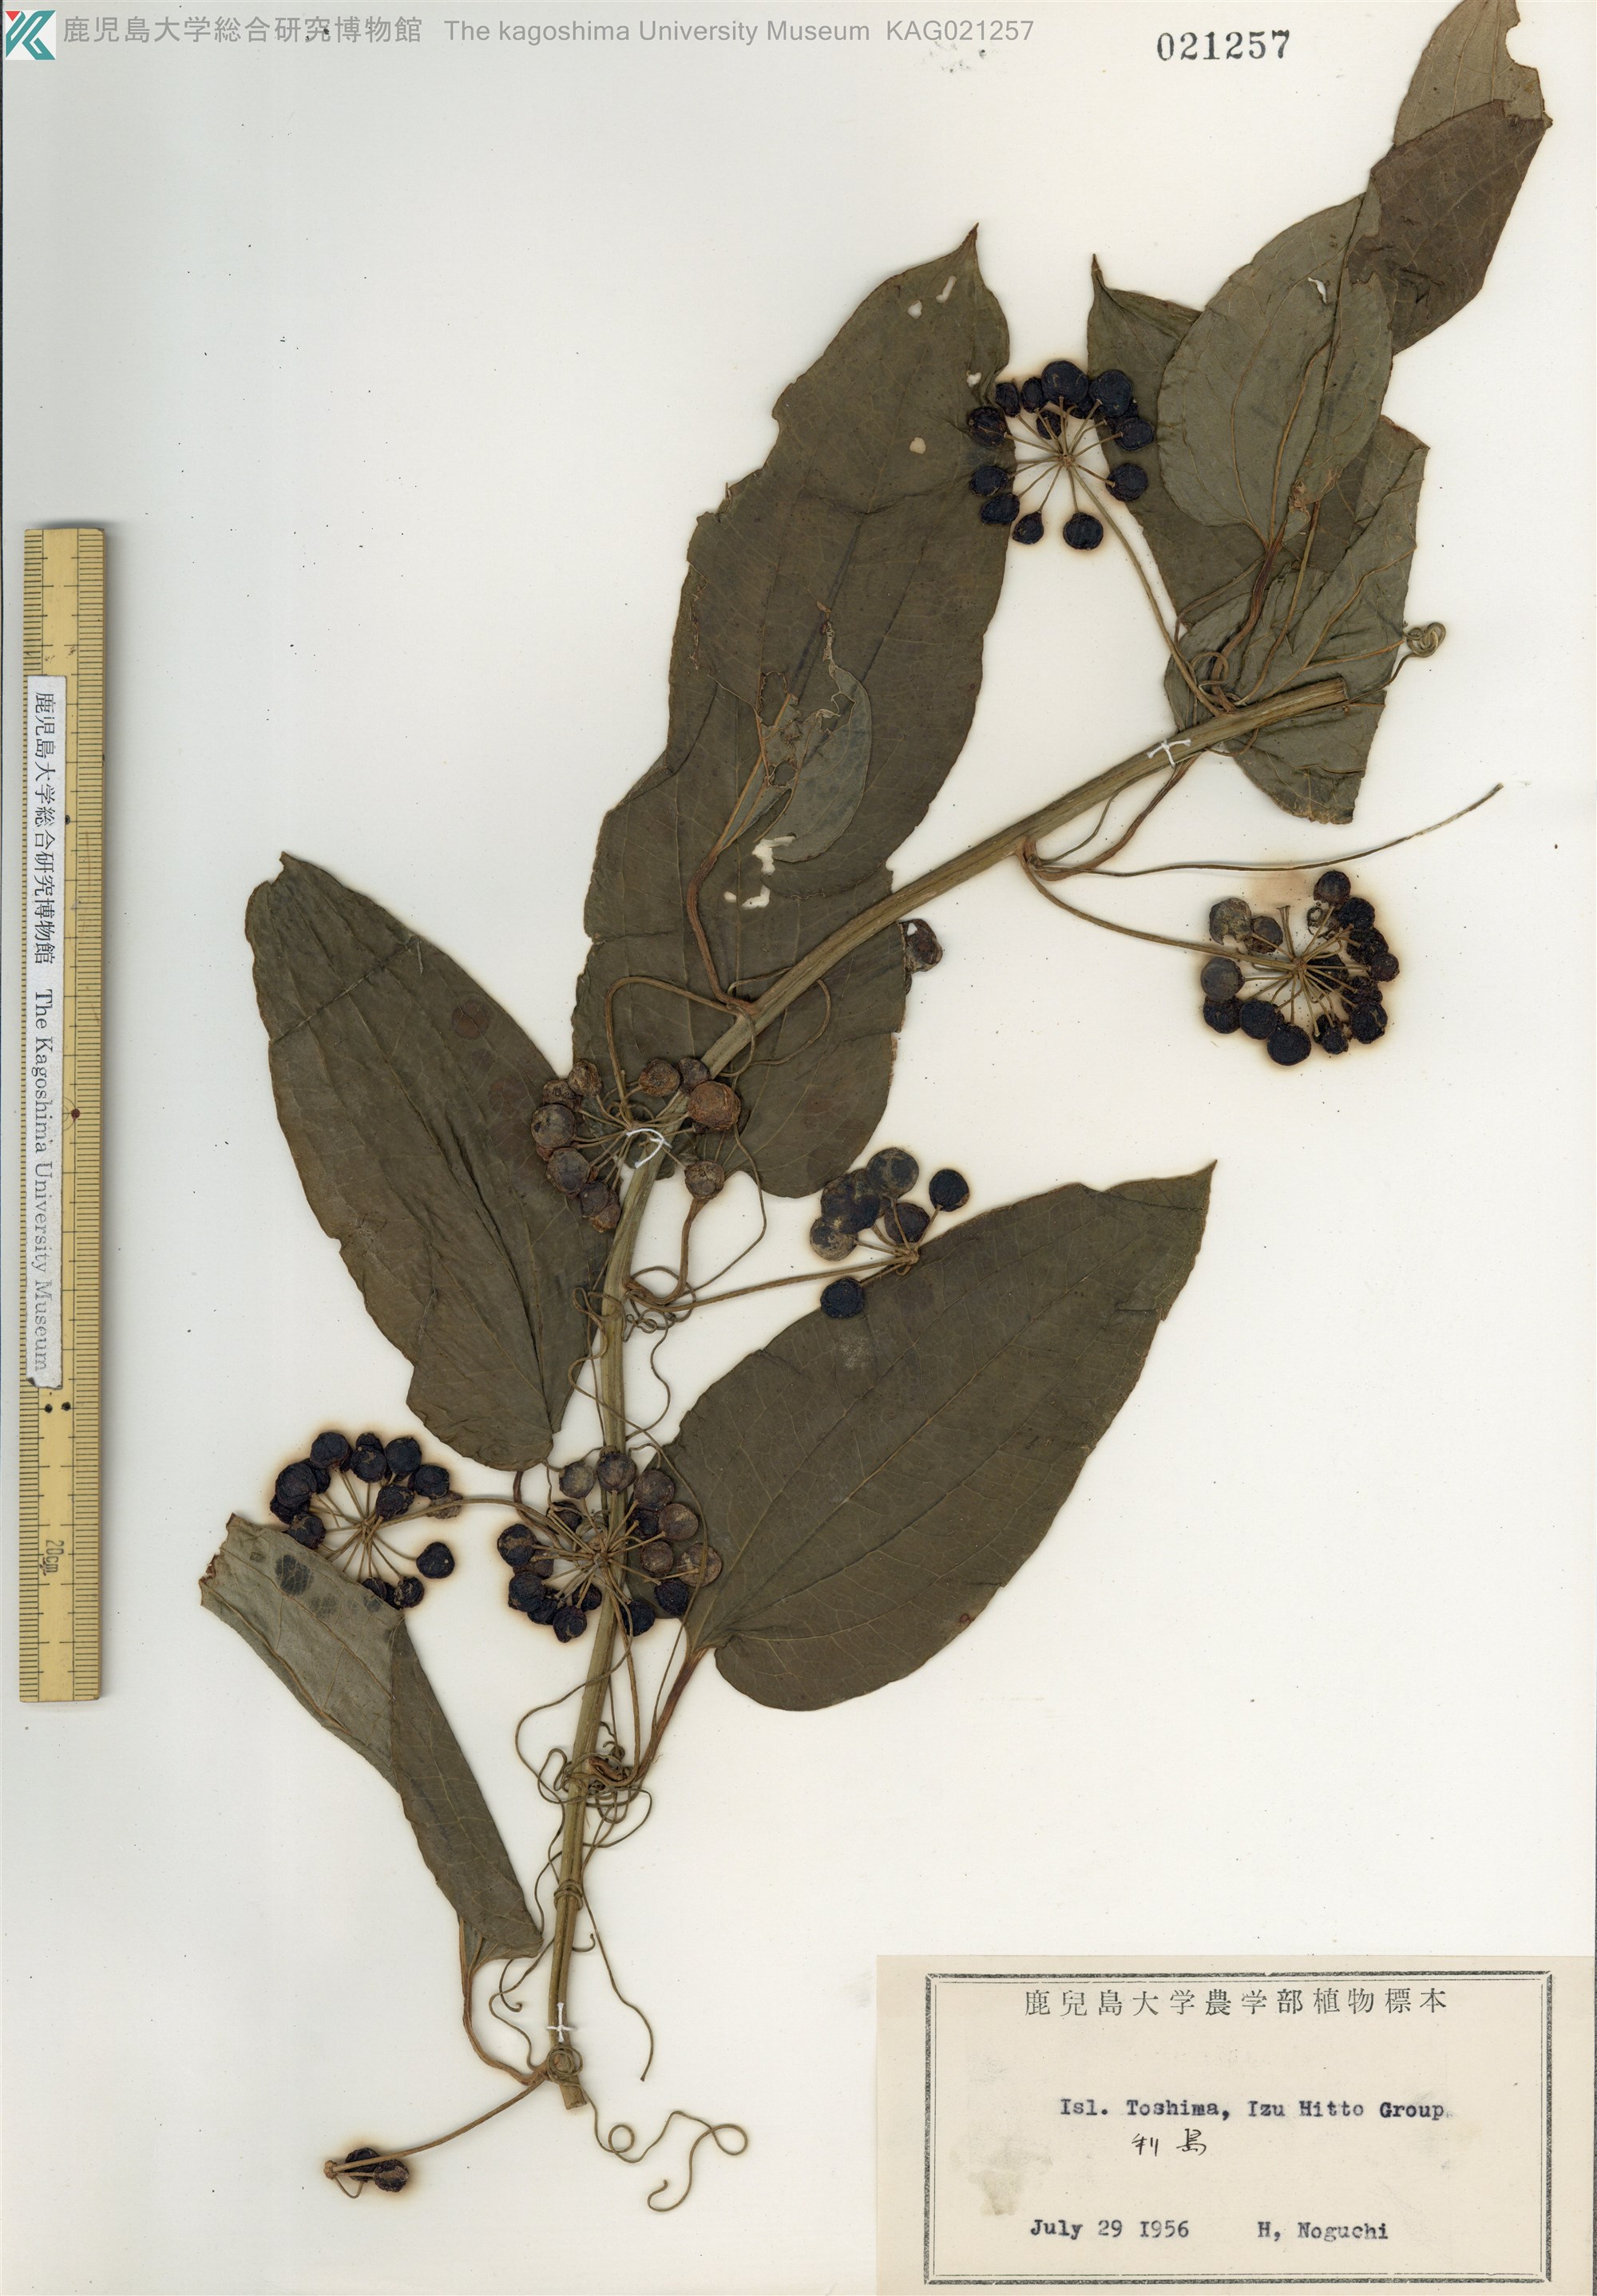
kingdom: Plantae
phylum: Tracheophyta
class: Liliopsida
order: Liliales
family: Smilacaceae
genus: Smilax
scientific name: Smilax riparia
